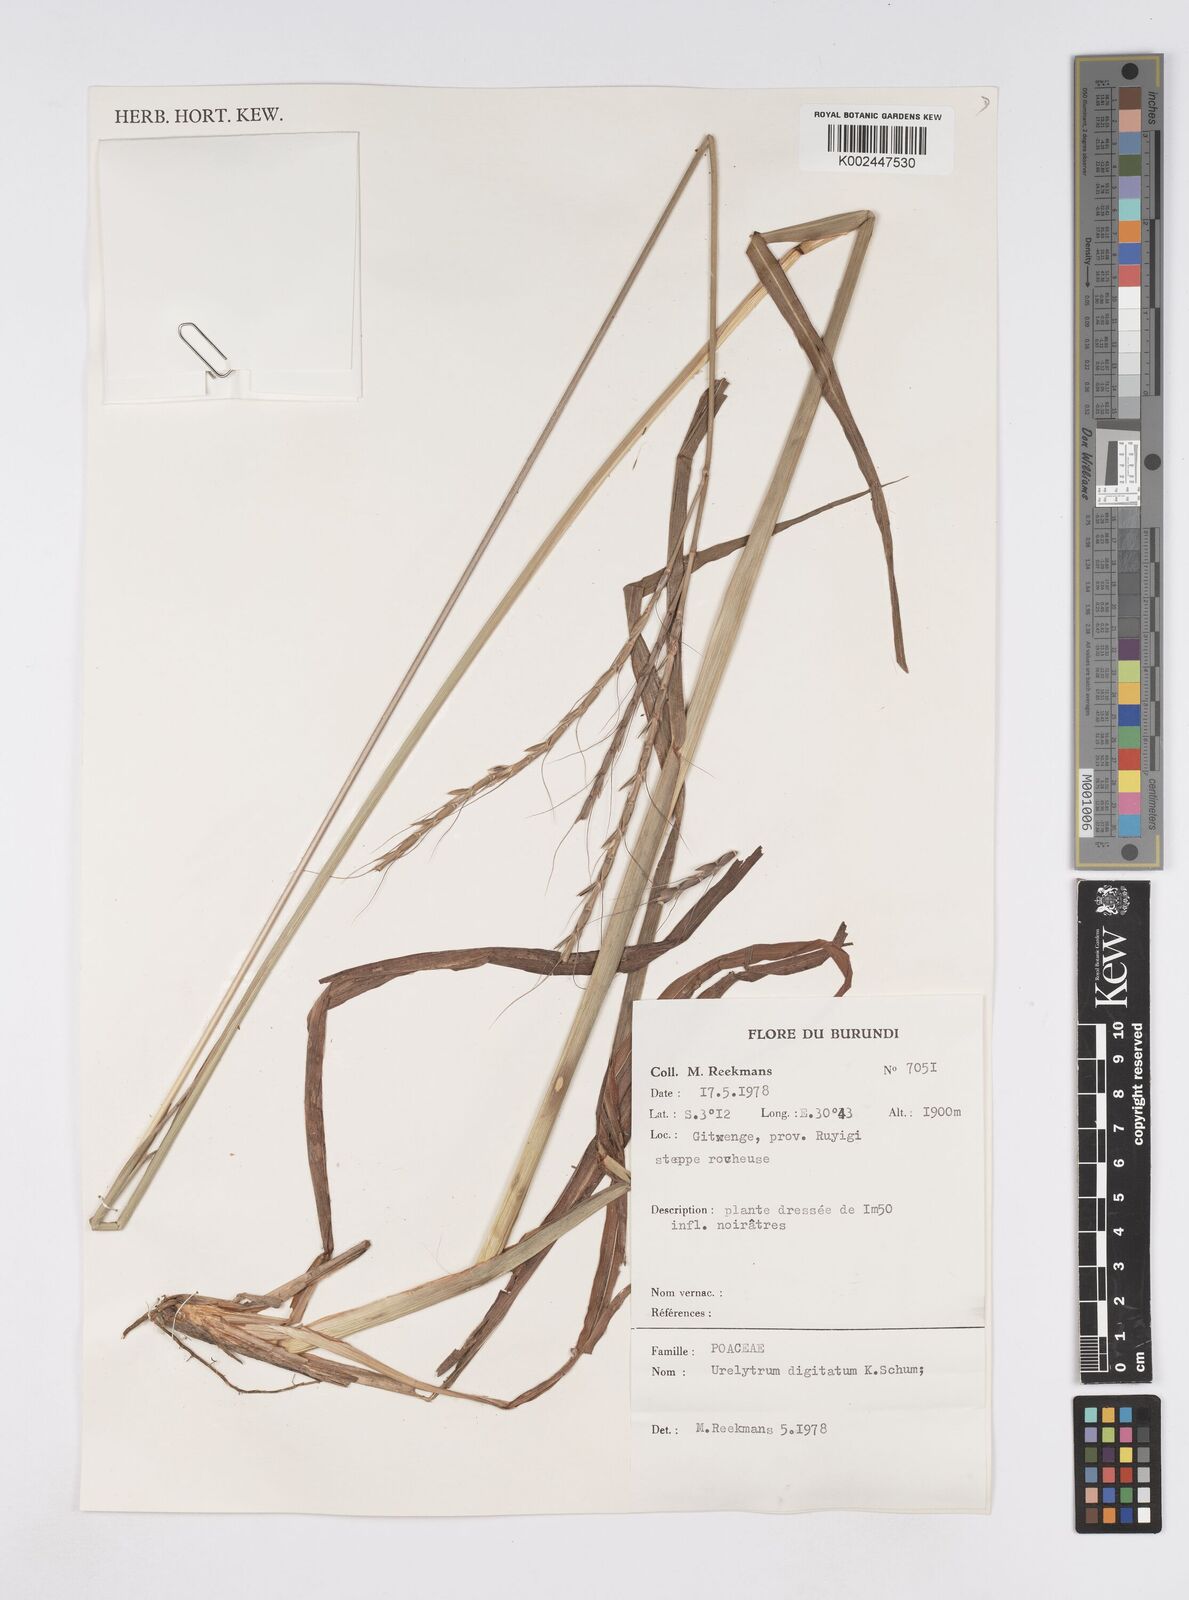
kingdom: Plantae
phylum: Tracheophyta
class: Liliopsida
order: Poales
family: Poaceae
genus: Urelytrum
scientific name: Urelytrum digitatum
